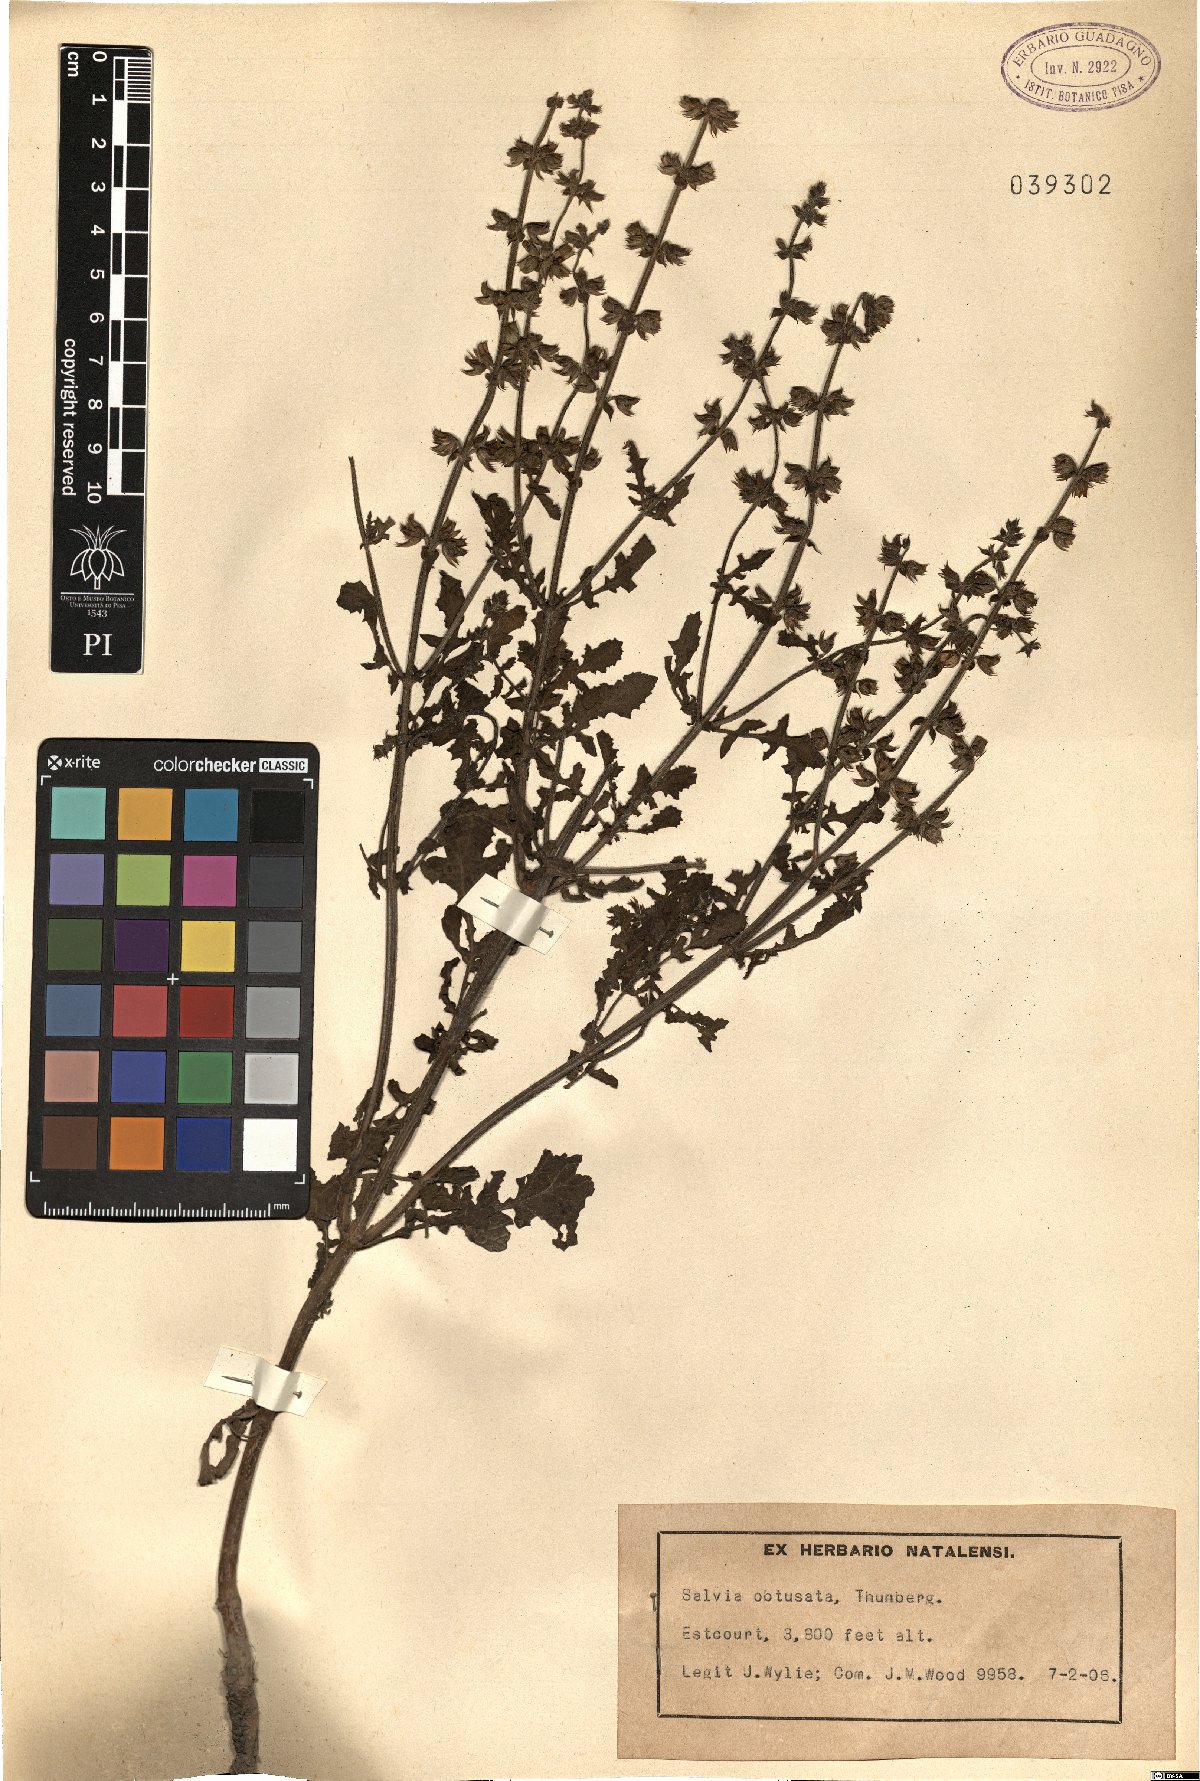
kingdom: Plantae
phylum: Tracheophyta
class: Magnoliopsida
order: Lamiales
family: Lamiaceae
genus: Salvia
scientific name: Salvia obtusata
